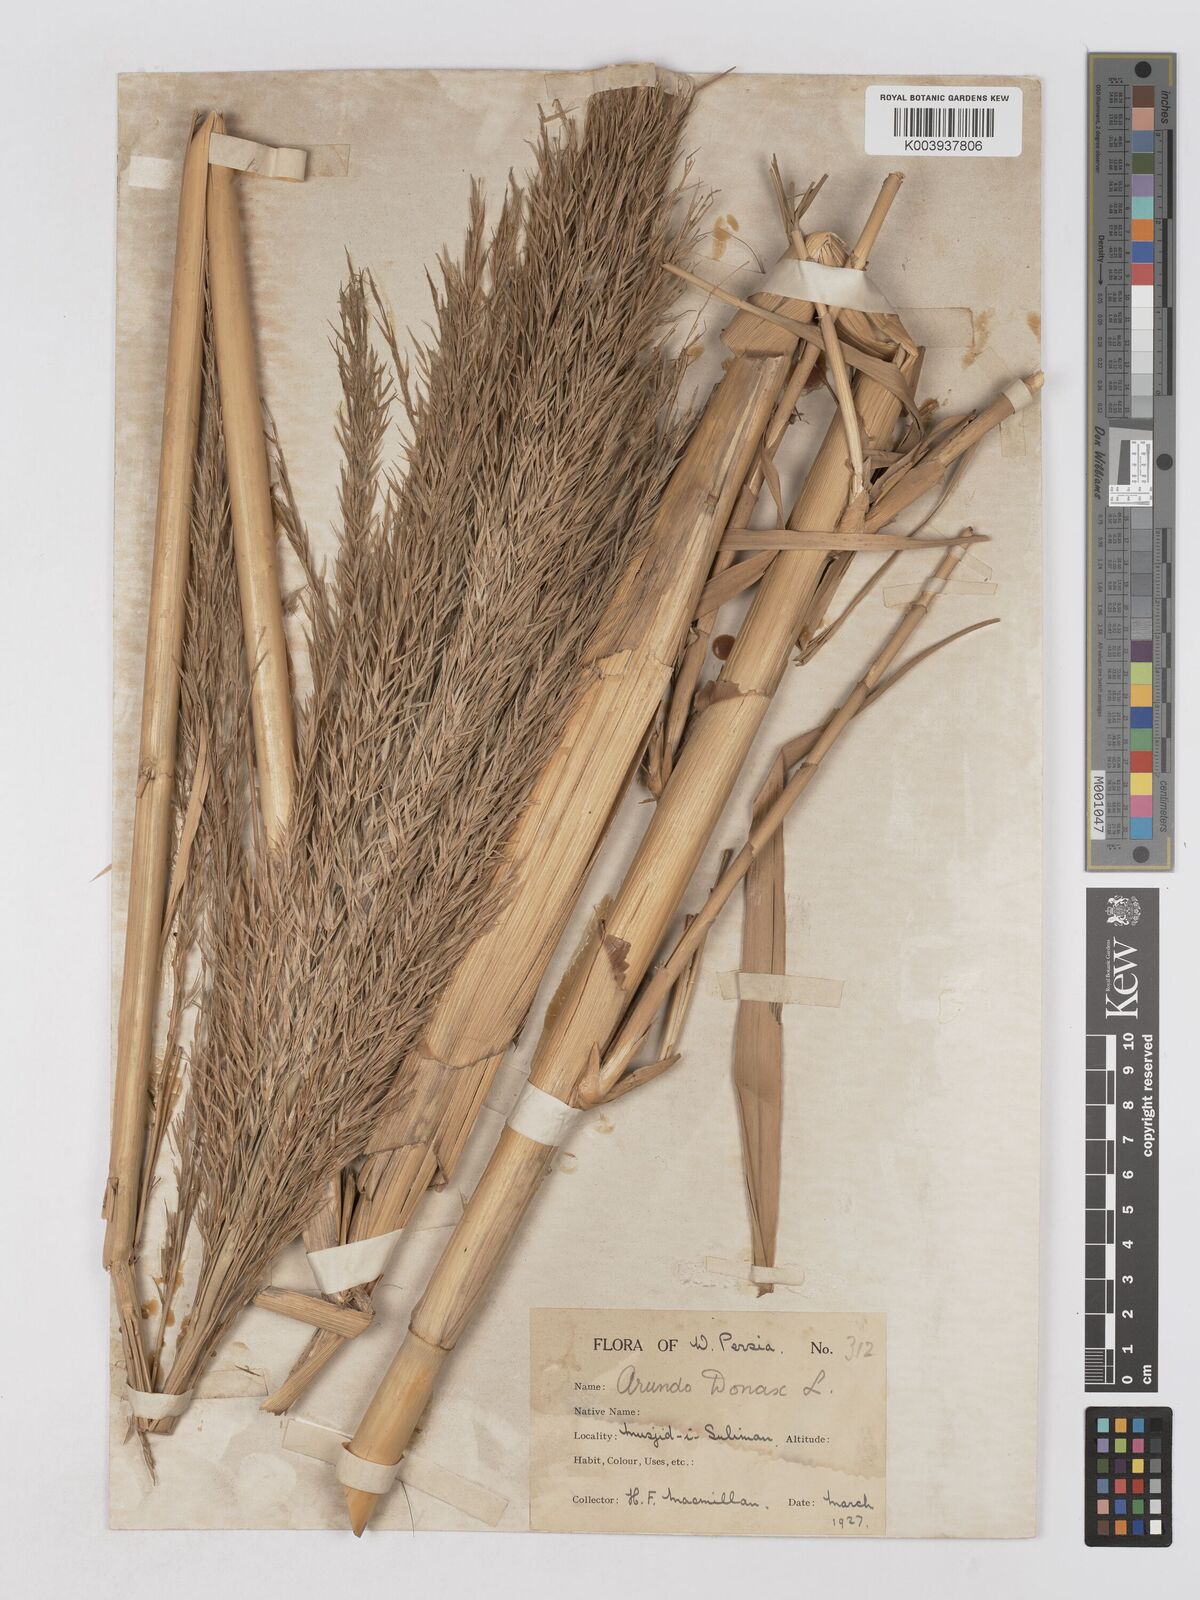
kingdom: Plantae
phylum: Tracheophyta
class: Liliopsida
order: Poales
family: Poaceae
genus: Arundo
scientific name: Arundo donax
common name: Giant reed
